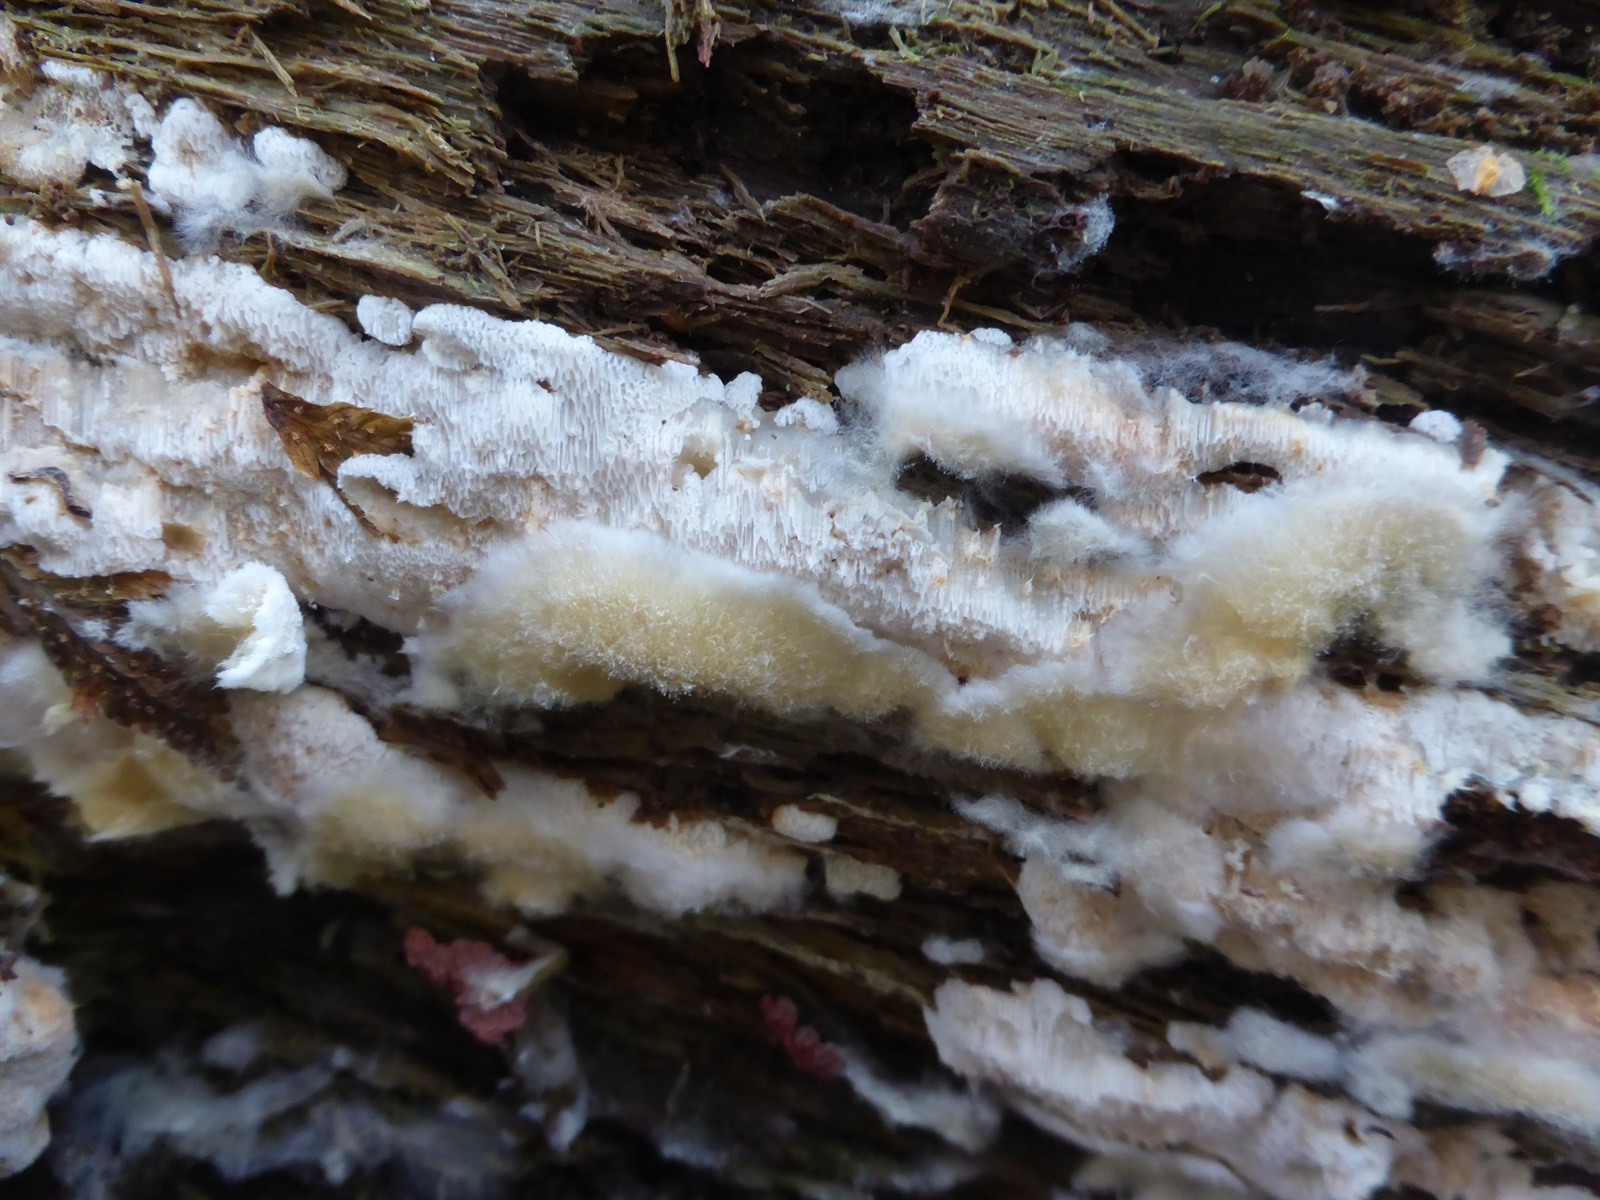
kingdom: Fungi
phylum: Basidiomycota
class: Agaricomycetes
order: Polyporales
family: Meruliaceae
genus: Physisporinus
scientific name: Physisporinus vitreus
